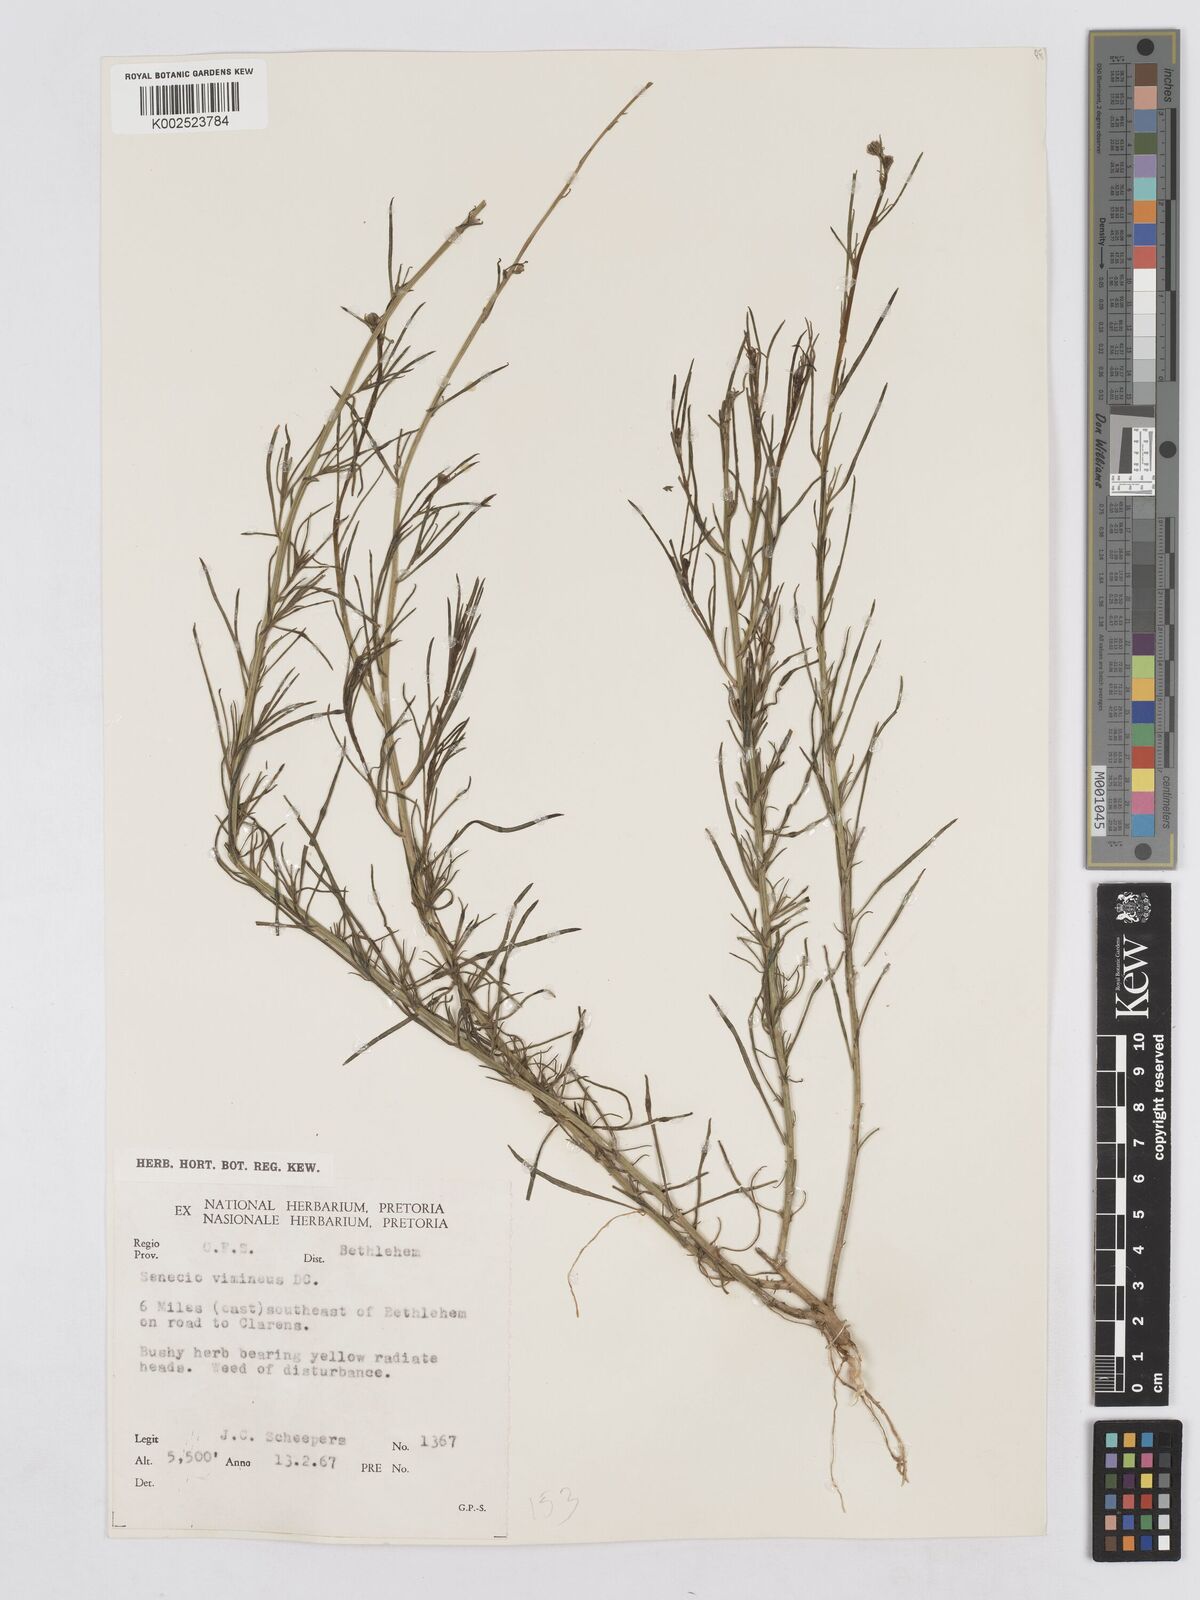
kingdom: Plantae
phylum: Tracheophyta
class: Magnoliopsida
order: Asterales
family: Asteraceae
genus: Senecio
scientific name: Senecio harveyanus
